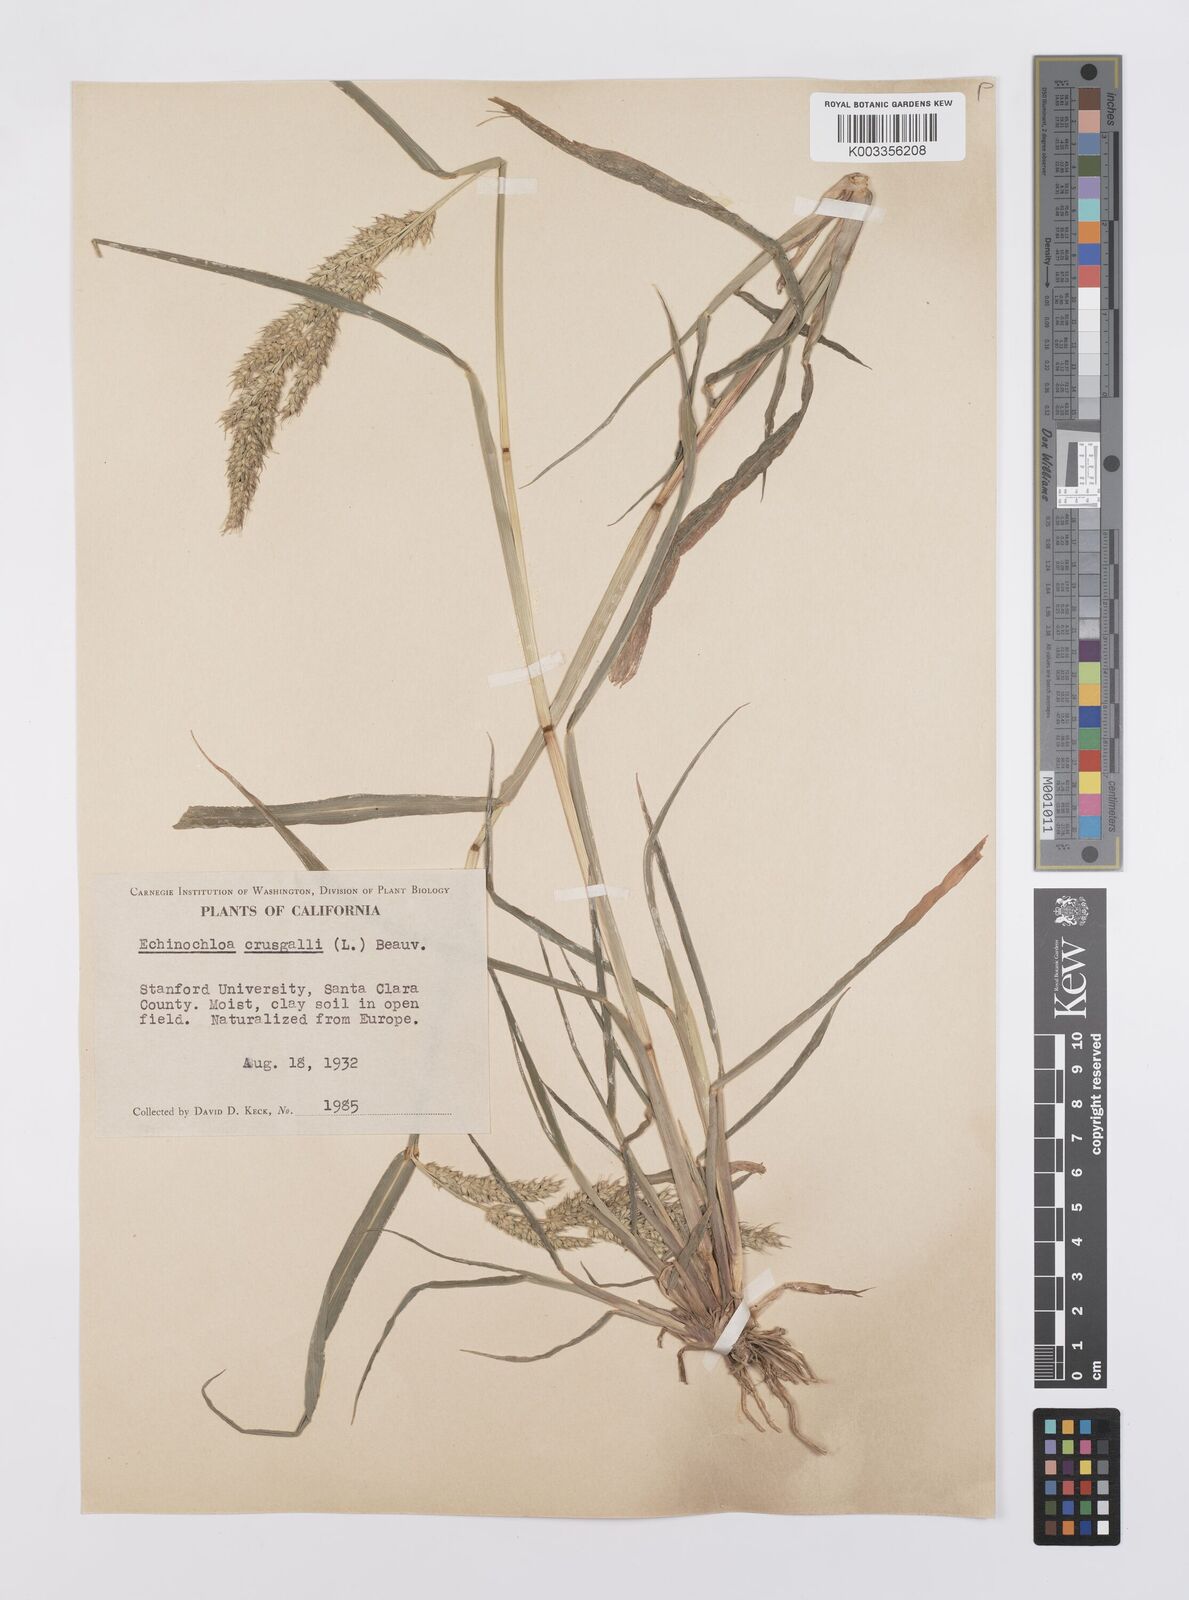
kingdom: Plantae
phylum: Tracheophyta
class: Liliopsida
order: Poales
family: Poaceae
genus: Echinochloa
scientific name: Echinochloa crus-galli
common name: Cockspur
